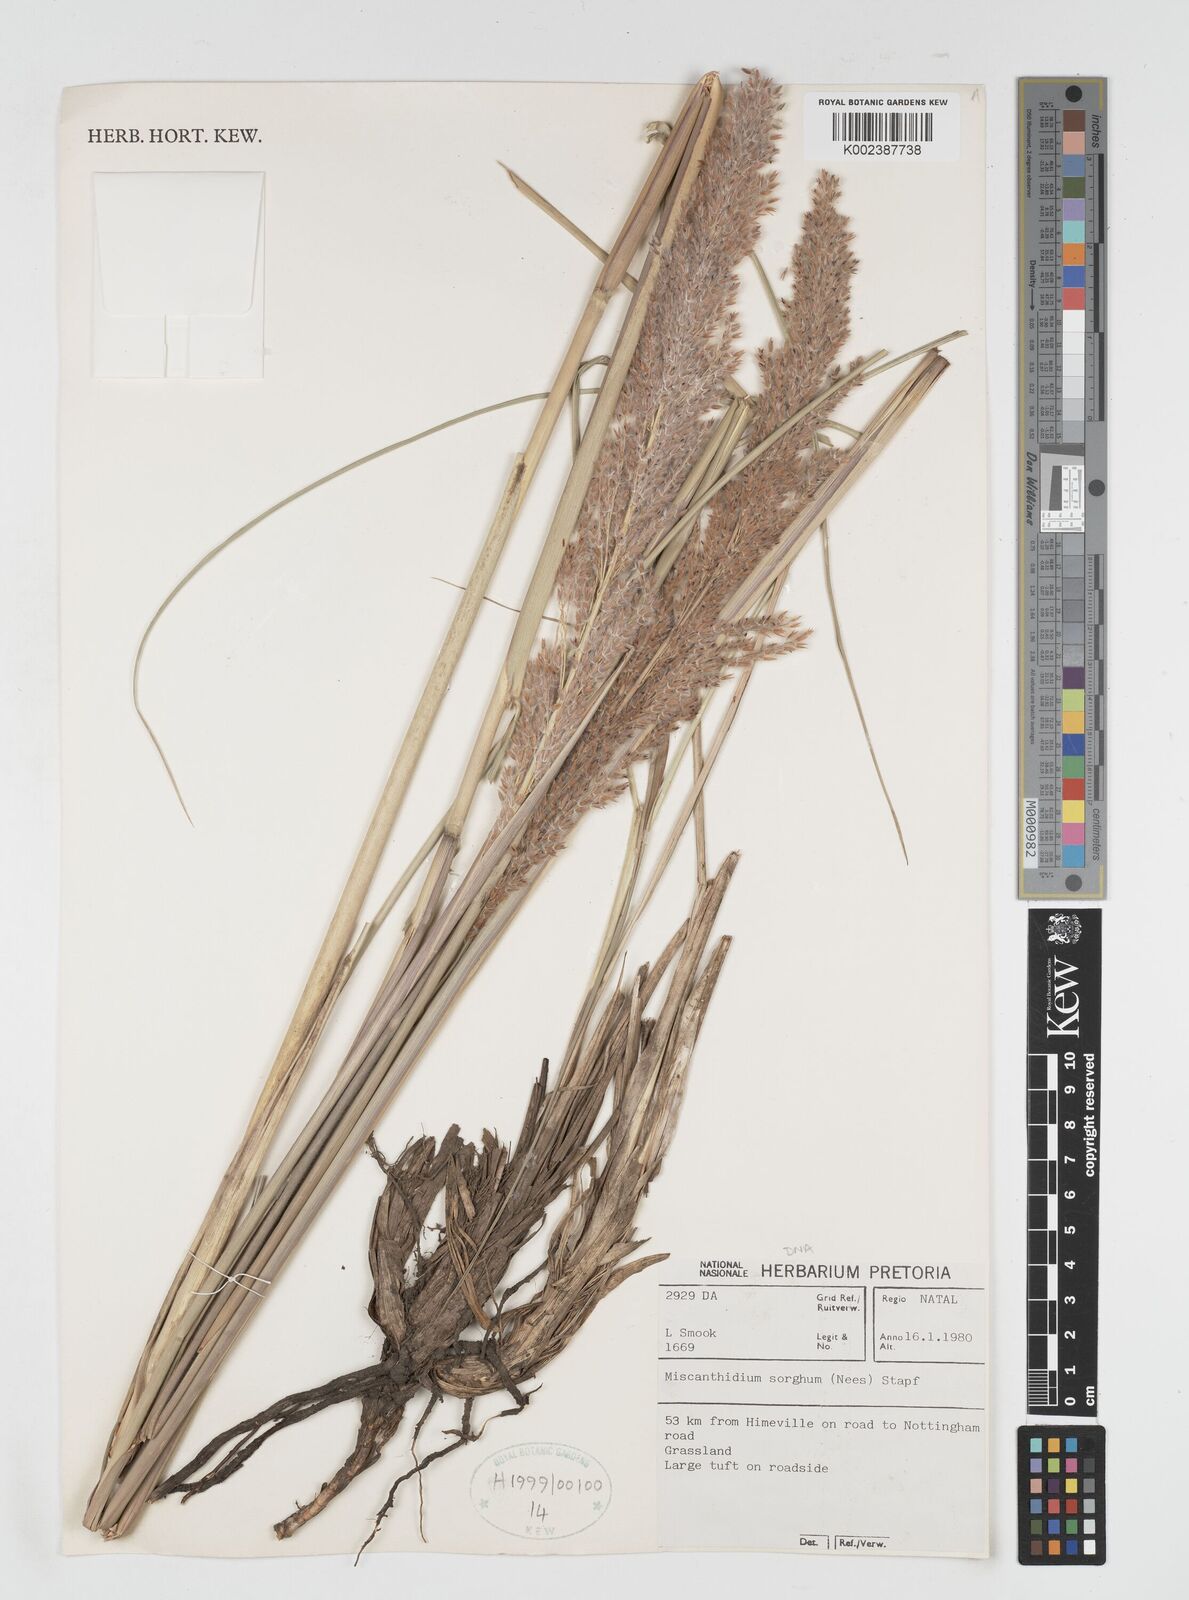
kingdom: Plantae
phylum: Tracheophyta
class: Liliopsida
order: Poales
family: Poaceae
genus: Miscanthus
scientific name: Miscanthus ecklonii
